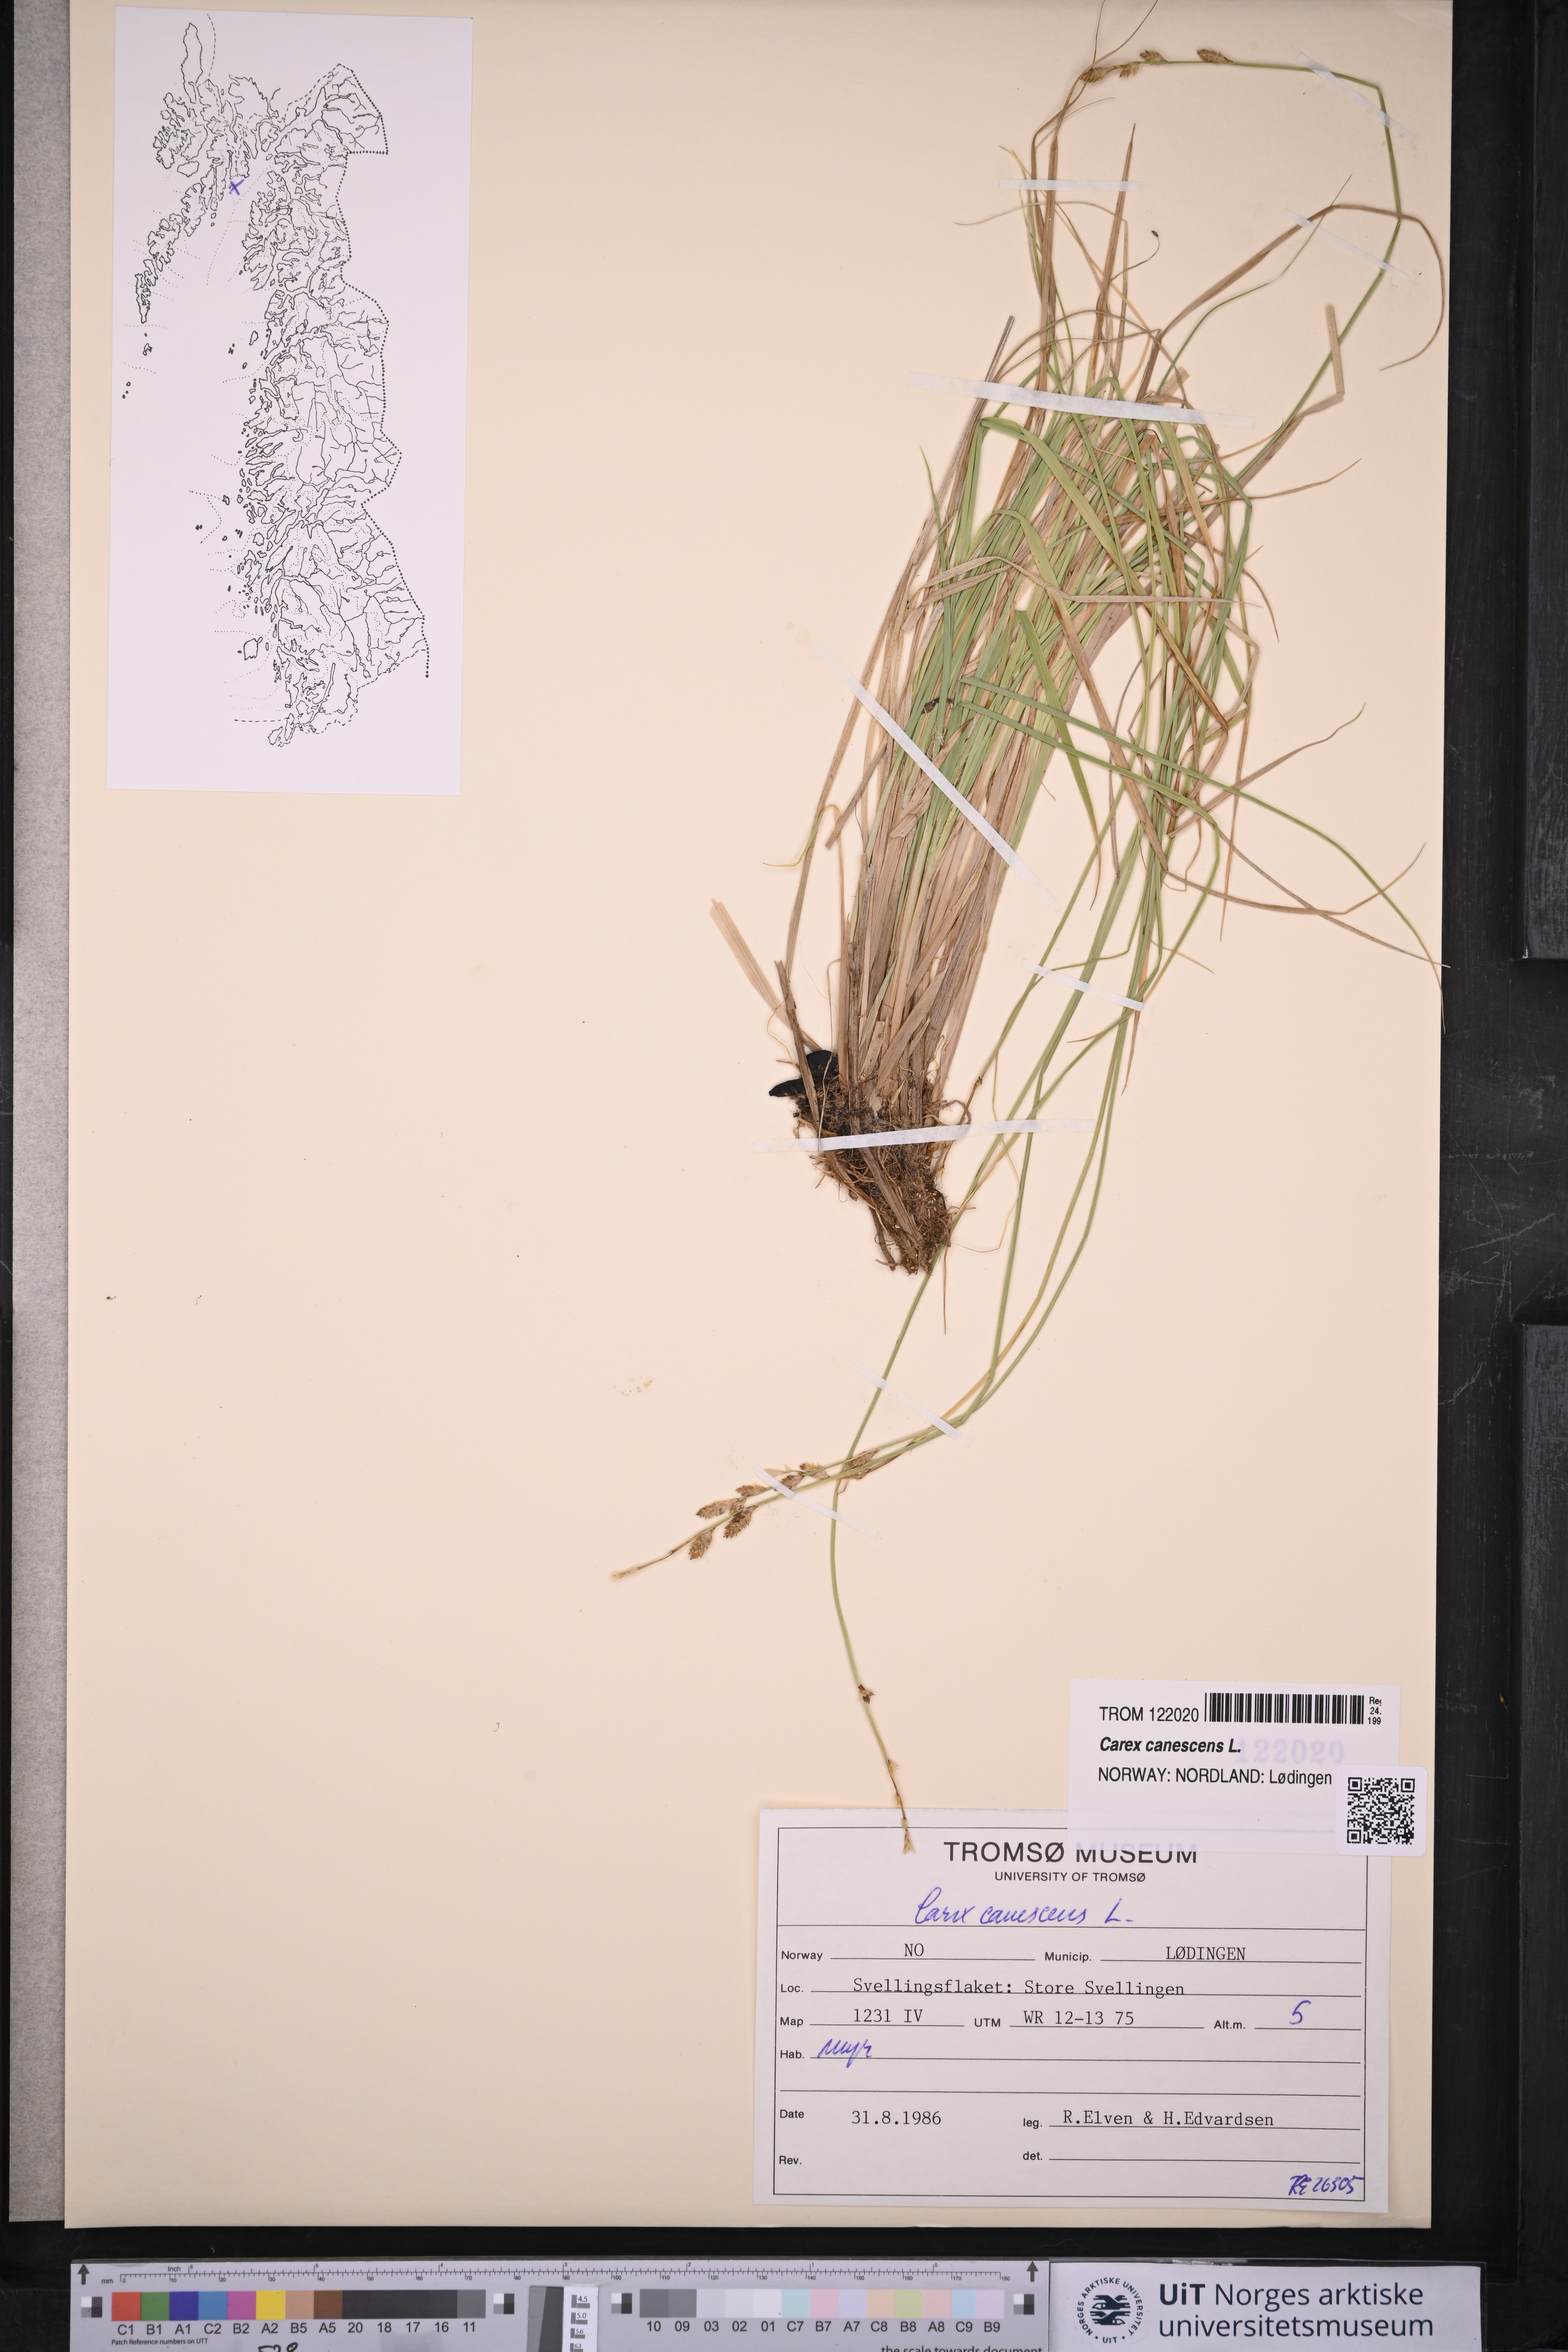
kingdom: Plantae
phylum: Tracheophyta
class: Liliopsida
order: Poales
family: Cyperaceae
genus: Carex
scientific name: Carex canescens
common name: White sedge
